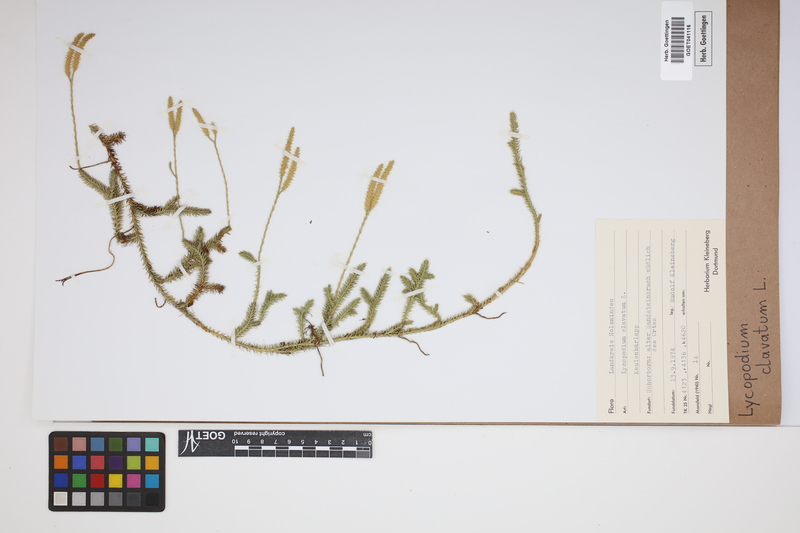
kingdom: Plantae
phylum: Tracheophyta
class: Lycopodiopsida
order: Lycopodiales
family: Lycopodiaceae
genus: Lycopodium
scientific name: Lycopodium clavatum
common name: Stag's-horn clubmoss
